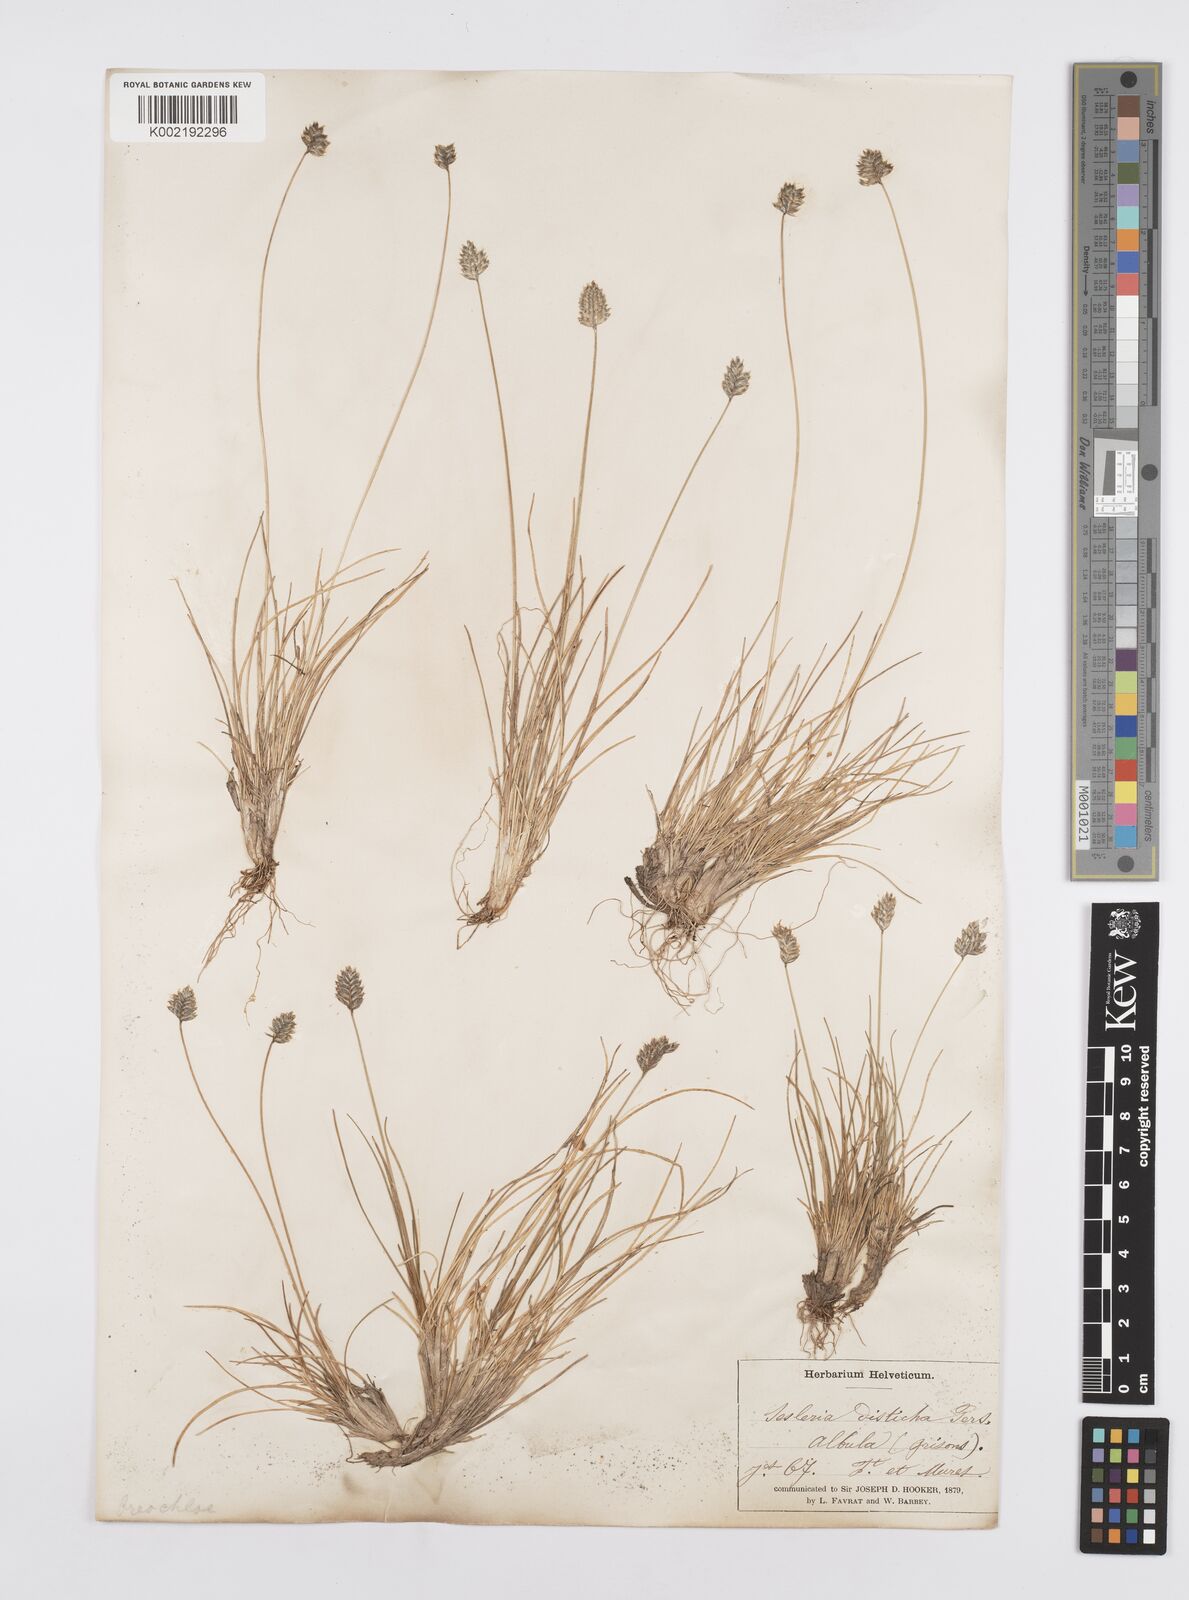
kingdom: Plantae
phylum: Tracheophyta
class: Liliopsida
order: Poales
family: Poaceae
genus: Oreochloa
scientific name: Oreochloa disticha
